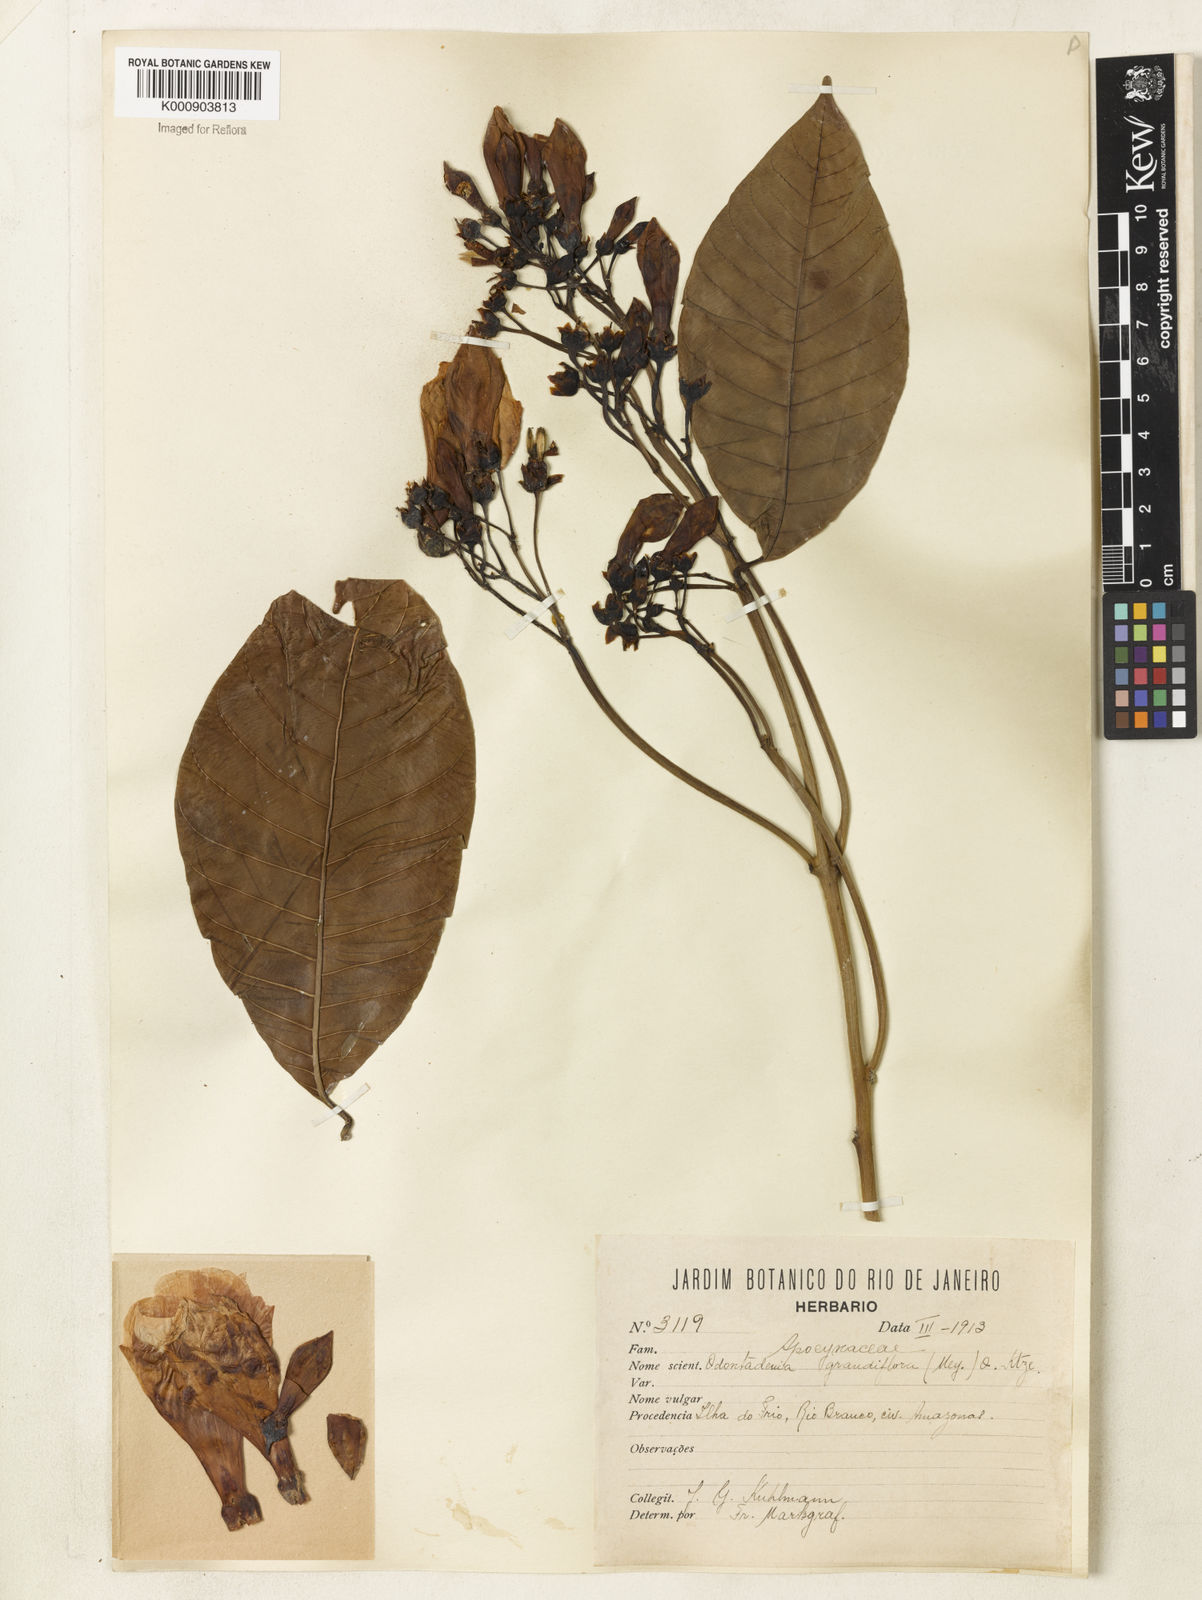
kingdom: Plantae
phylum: Tracheophyta
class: Magnoliopsida
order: Gentianales
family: Apocynaceae
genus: Odontadenia
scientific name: Odontadenia semidigyna
